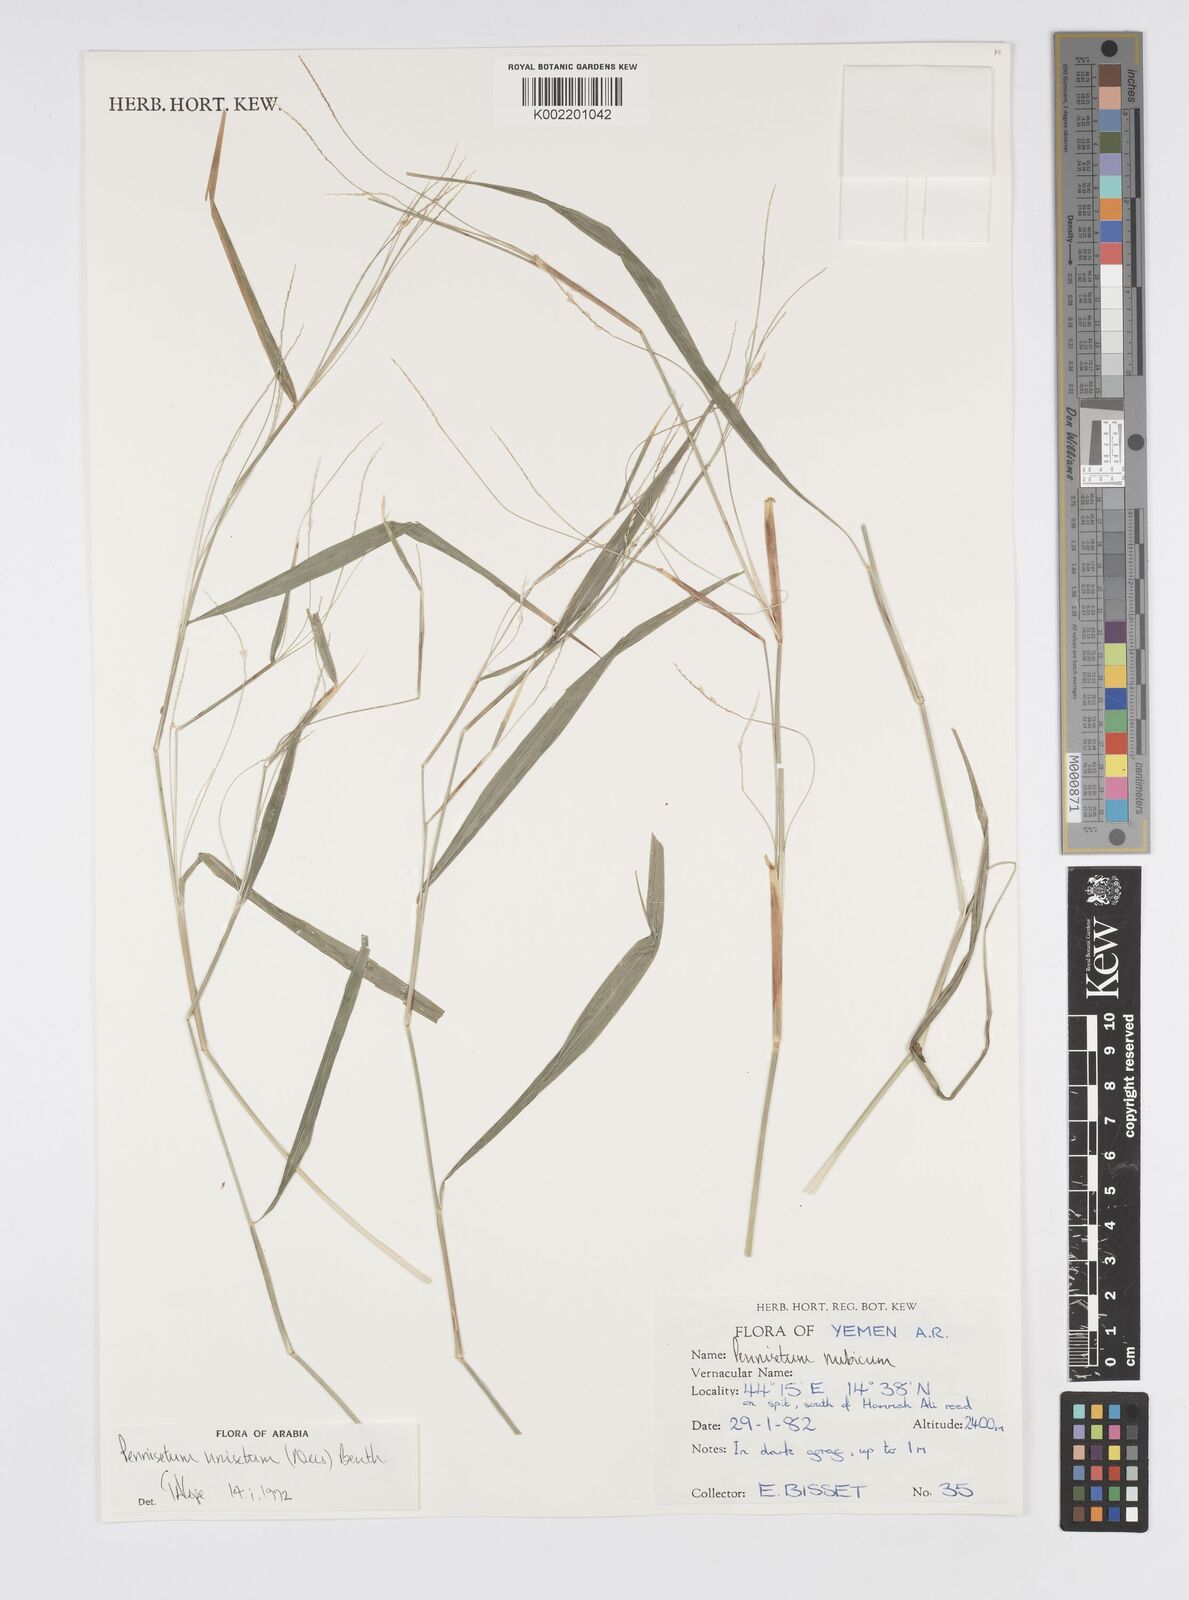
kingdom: Plantae
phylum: Tracheophyta
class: Liliopsida
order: Poales
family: Poaceae
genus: Cenchrus
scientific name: Cenchrus unisetus
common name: Natal grass
